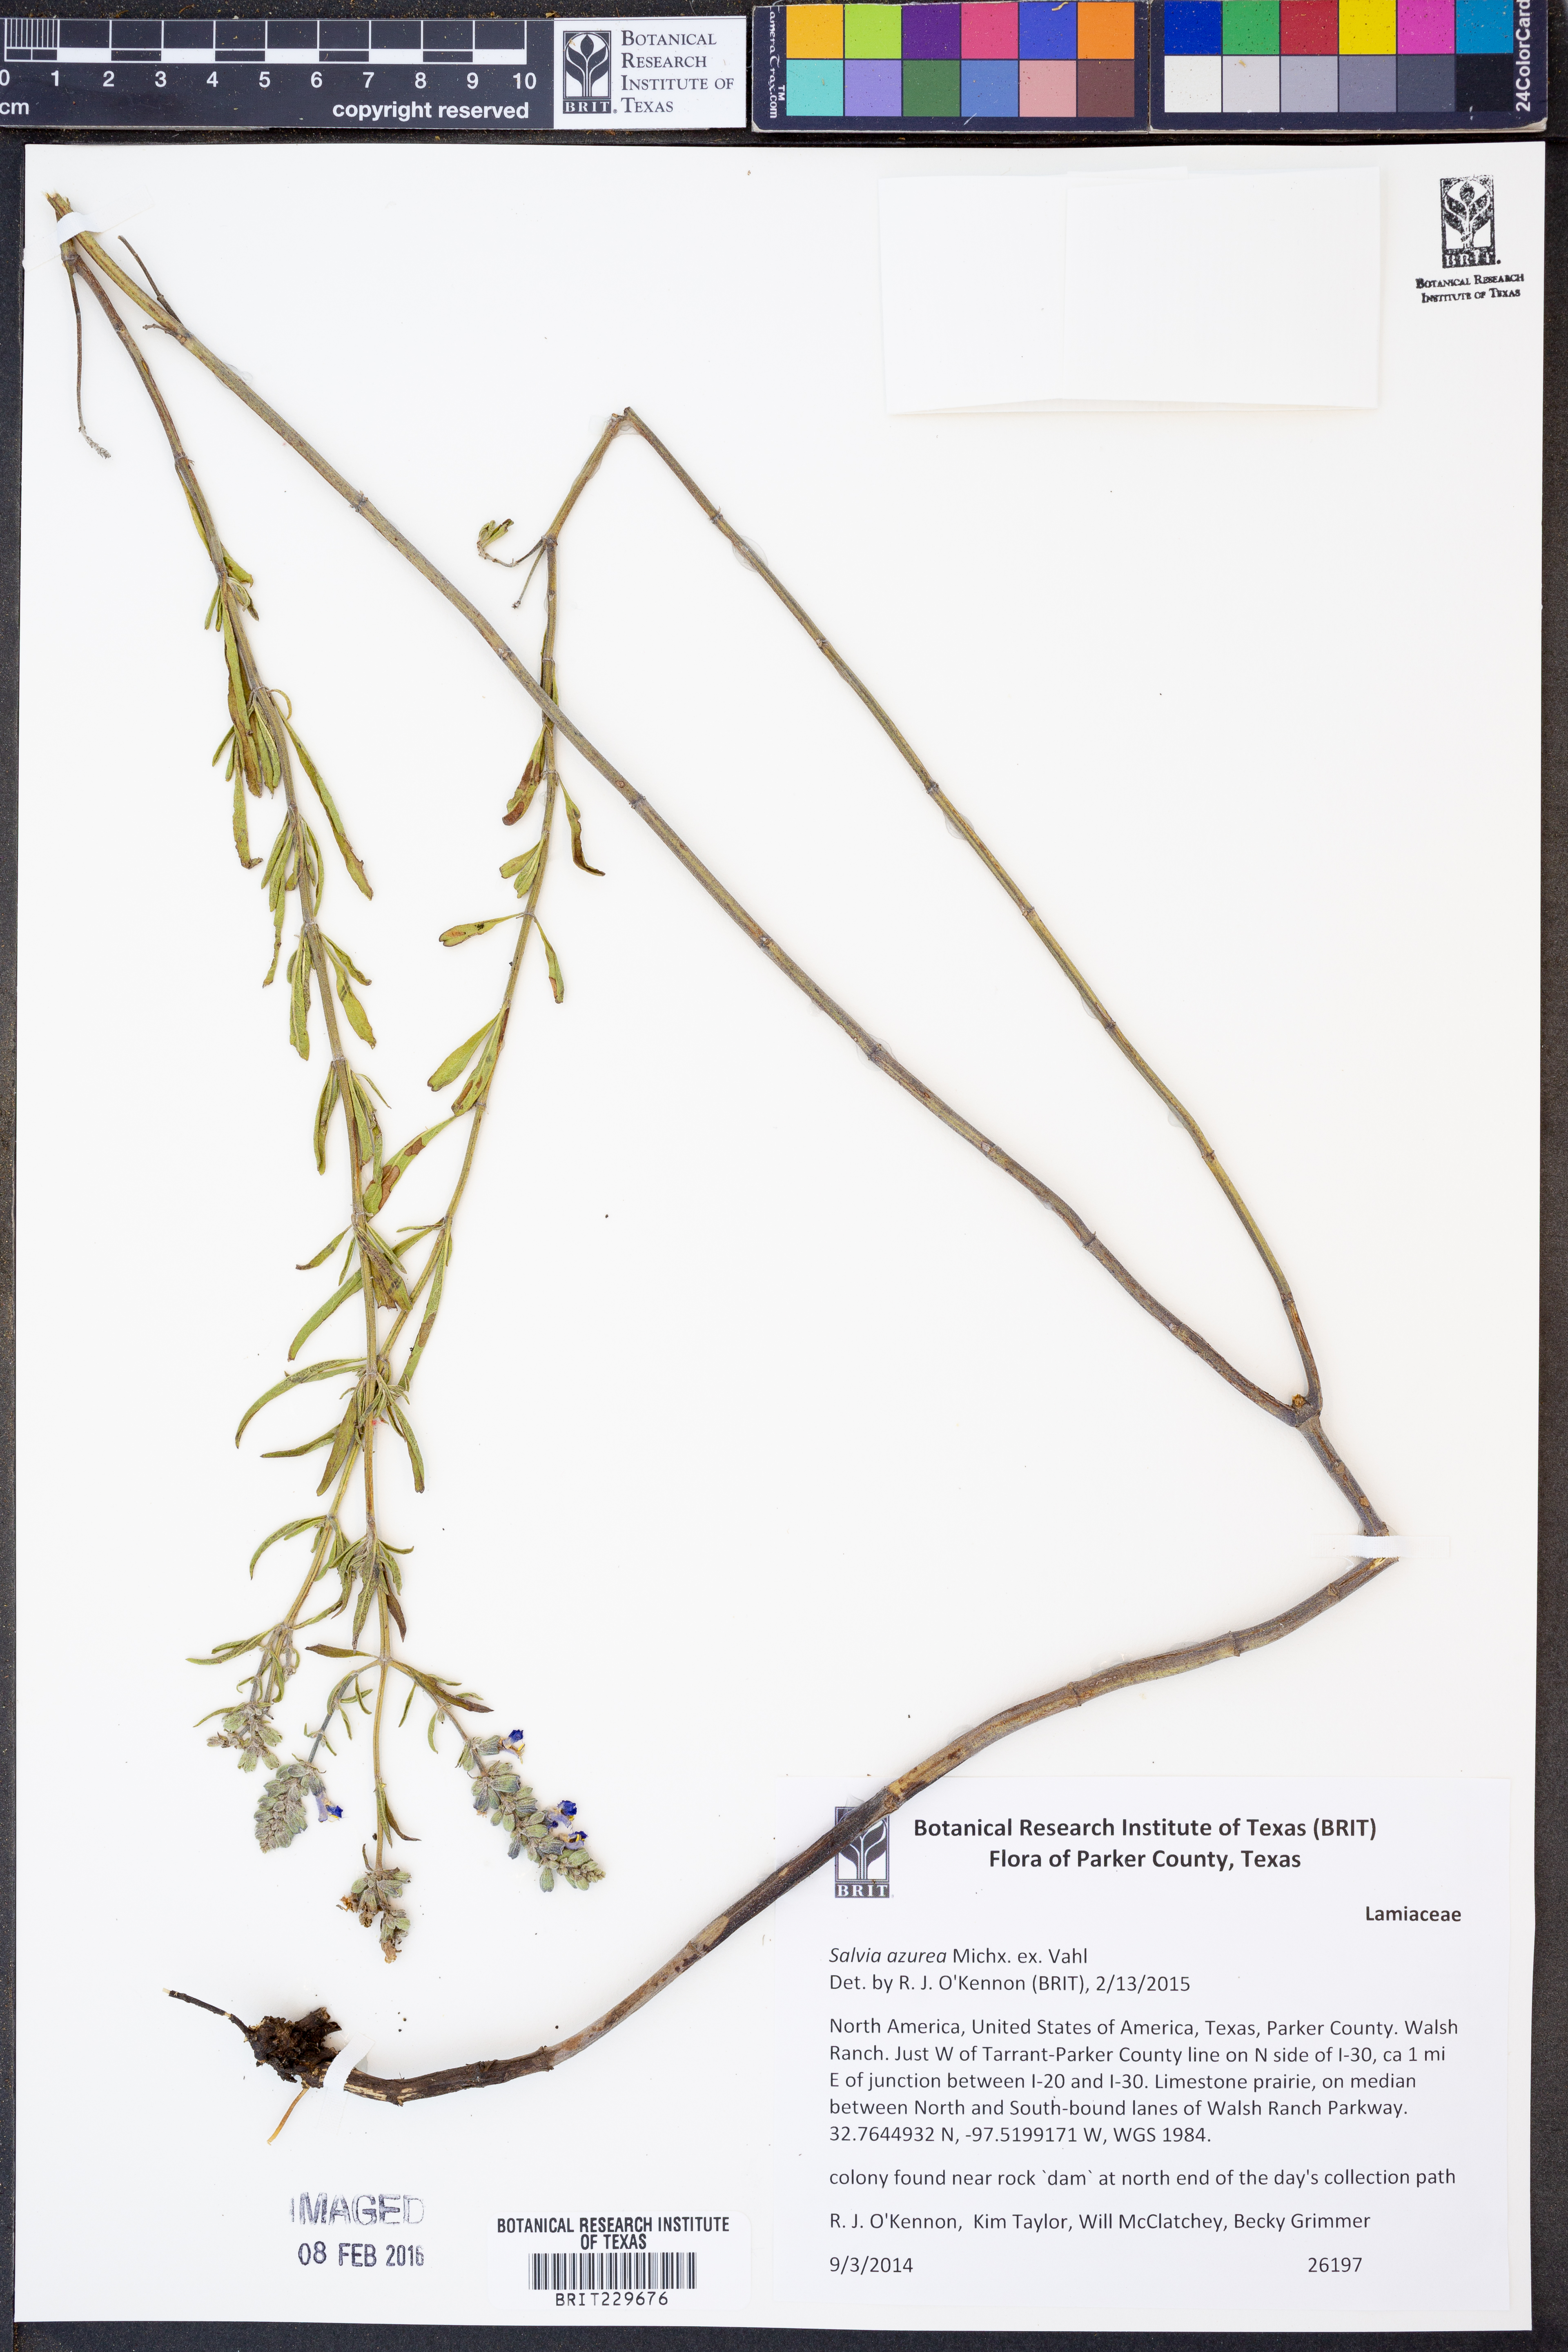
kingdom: Plantae
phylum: Tracheophyta
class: Magnoliopsida
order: Lamiales
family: Lamiaceae
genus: Salvia
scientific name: Salvia azurea
